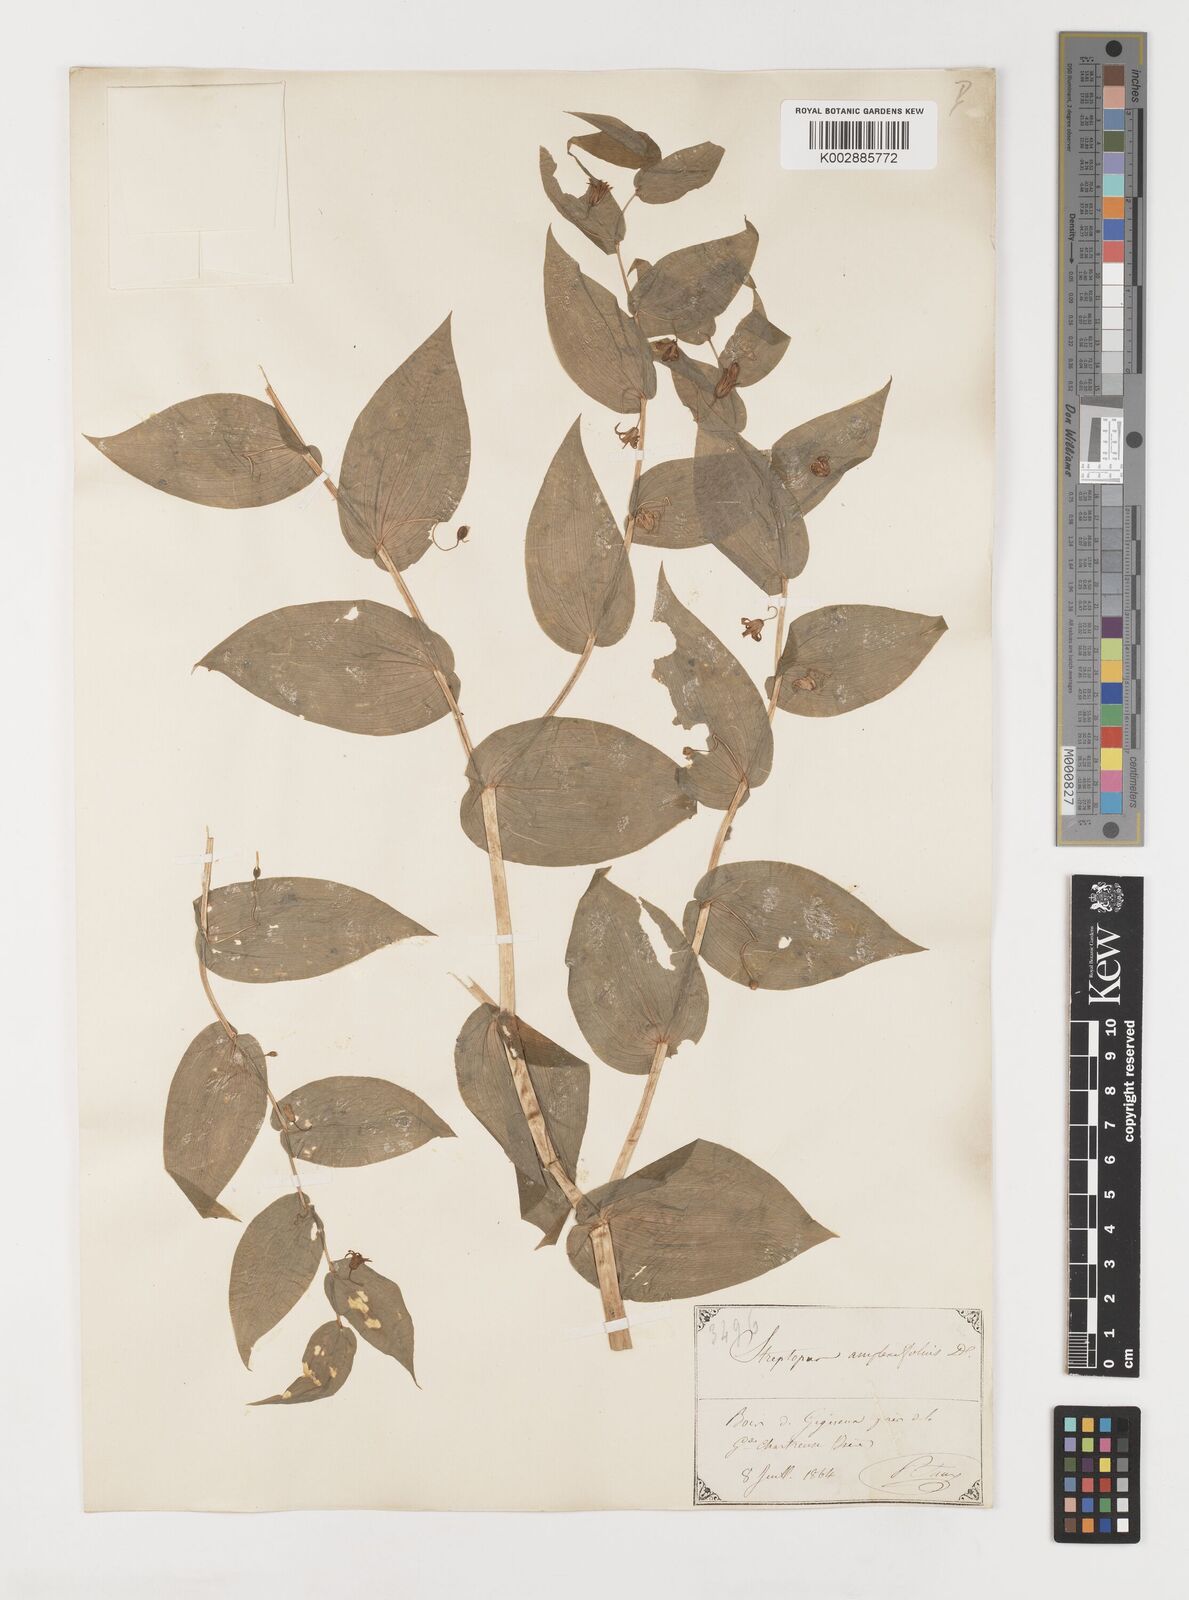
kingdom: Plantae
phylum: Tracheophyta
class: Liliopsida
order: Liliales
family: Liliaceae
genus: Streptopus
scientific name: Streptopus amplexifolius
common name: Clasp twisted stalk
